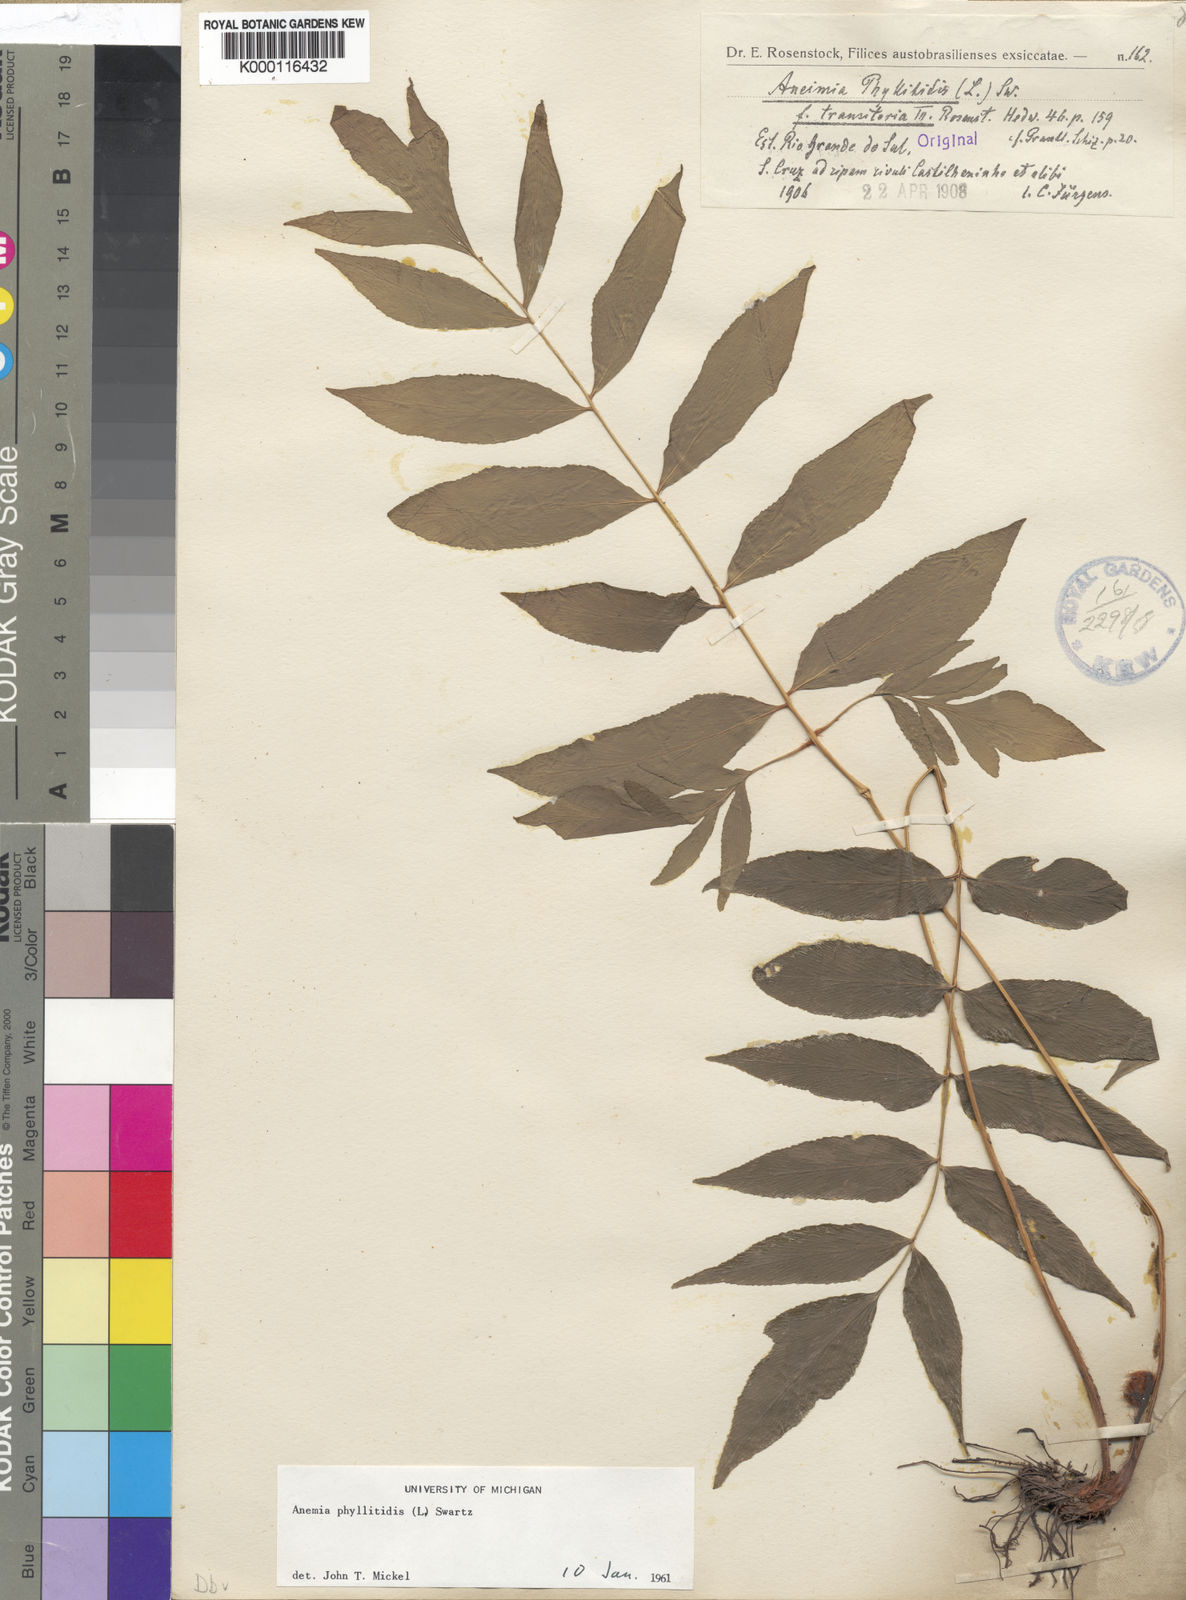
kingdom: Plantae
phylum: Tracheophyta
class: Polypodiopsida
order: Schizaeales
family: Anemiaceae
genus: Anemia
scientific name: Anemia phyllitidis
